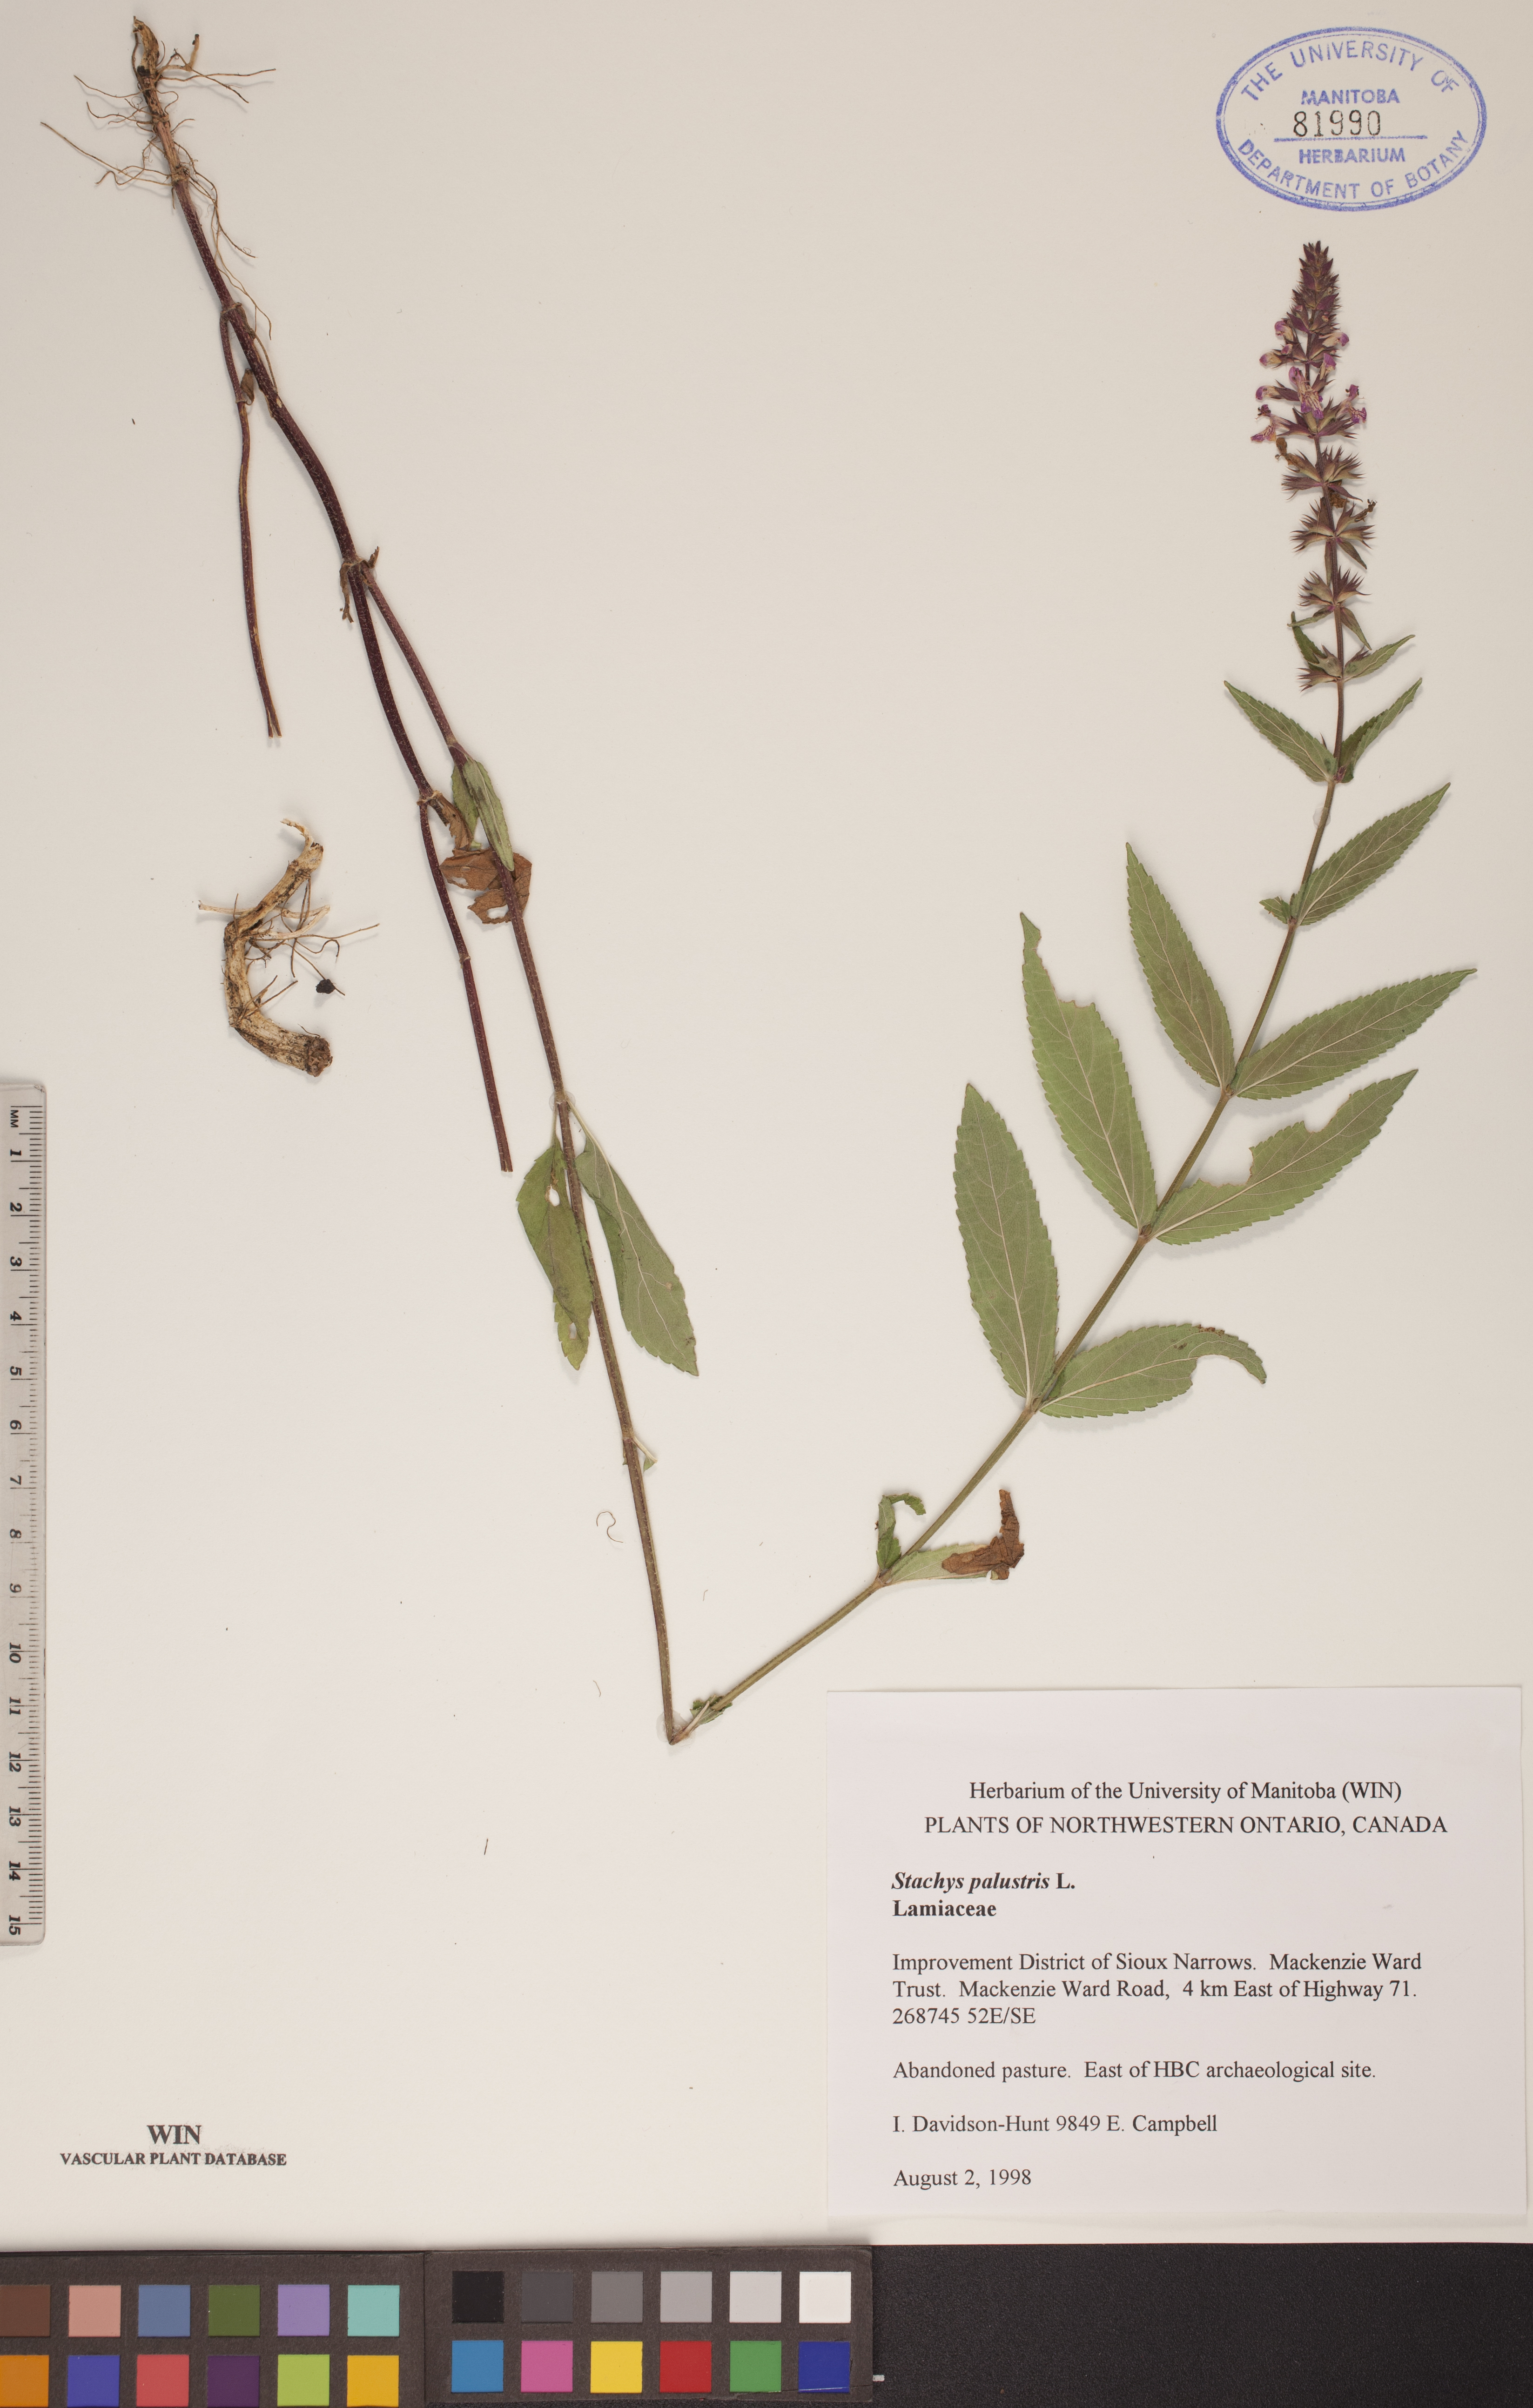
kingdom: Plantae
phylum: Tracheophyta
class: Magnoliopsida
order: Lamiales
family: Lamiaceae
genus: Stachys
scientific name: Stachys palustris
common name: Marsh woundwort
